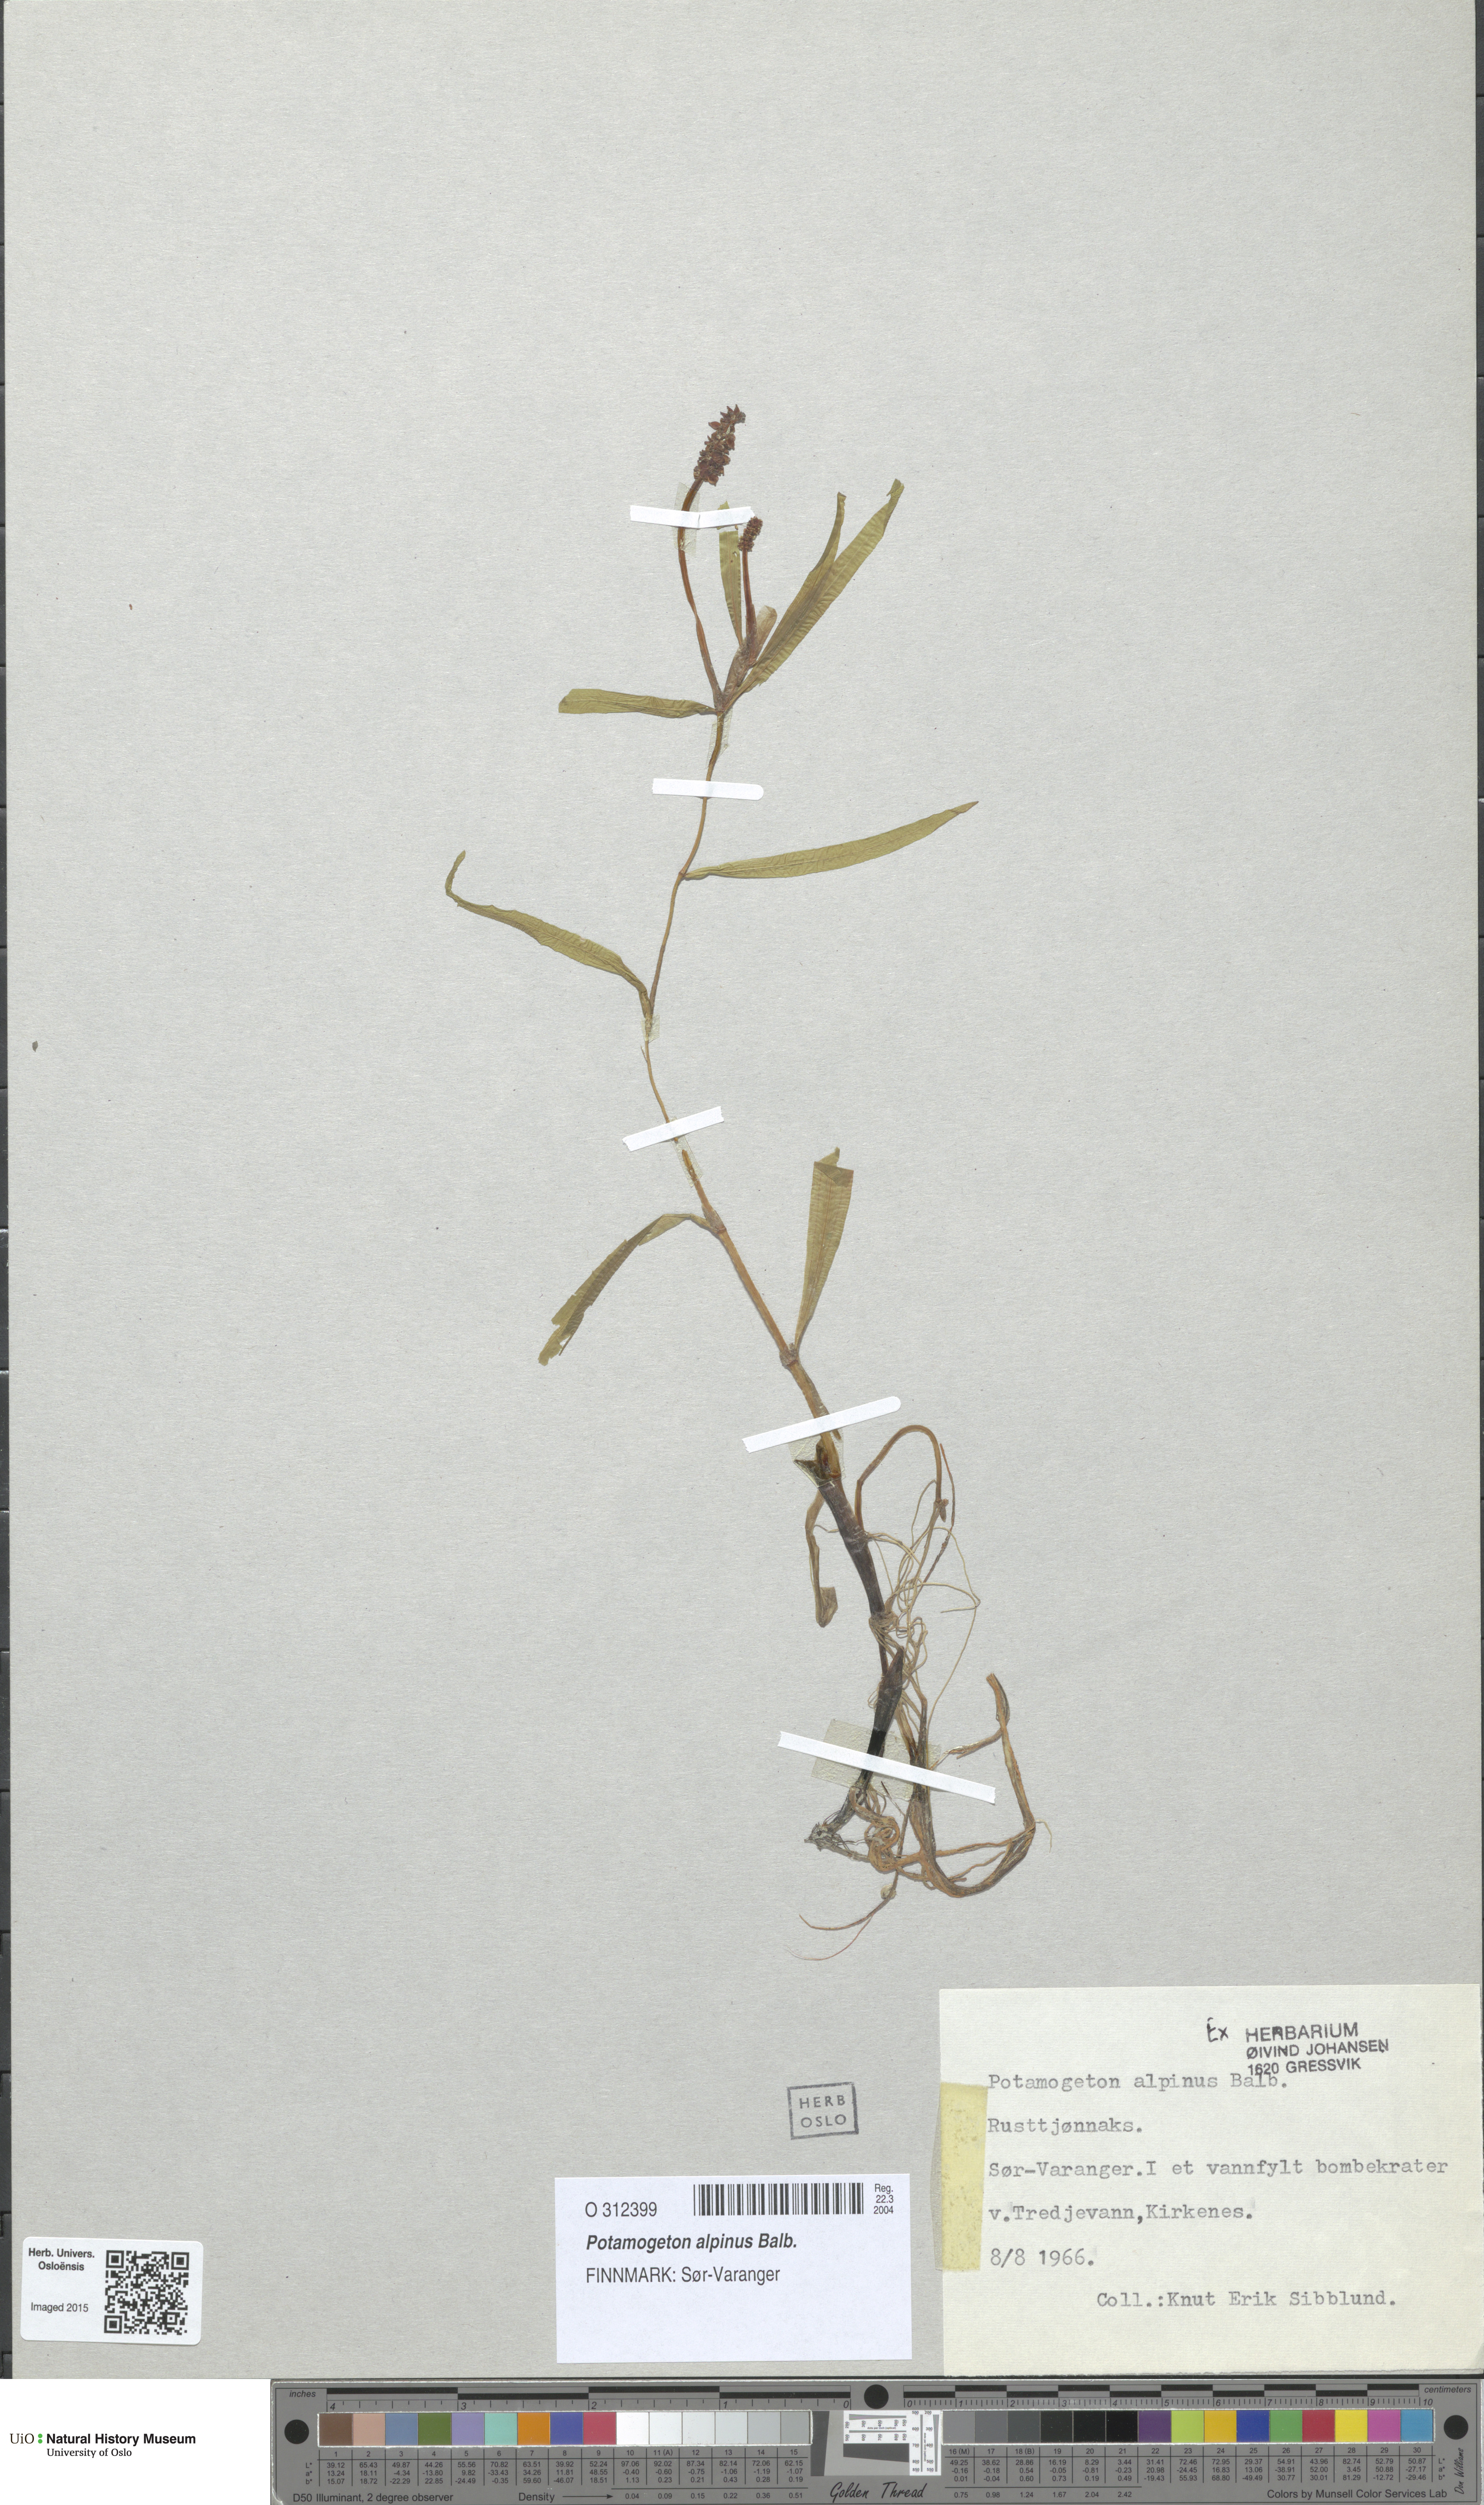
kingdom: Plantae
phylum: Tracheophyta
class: Liliopsida
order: Alismatales
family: Potamogetonaceae
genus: Potamogeton
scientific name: Potamogeton alpinus
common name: Red pondweed
